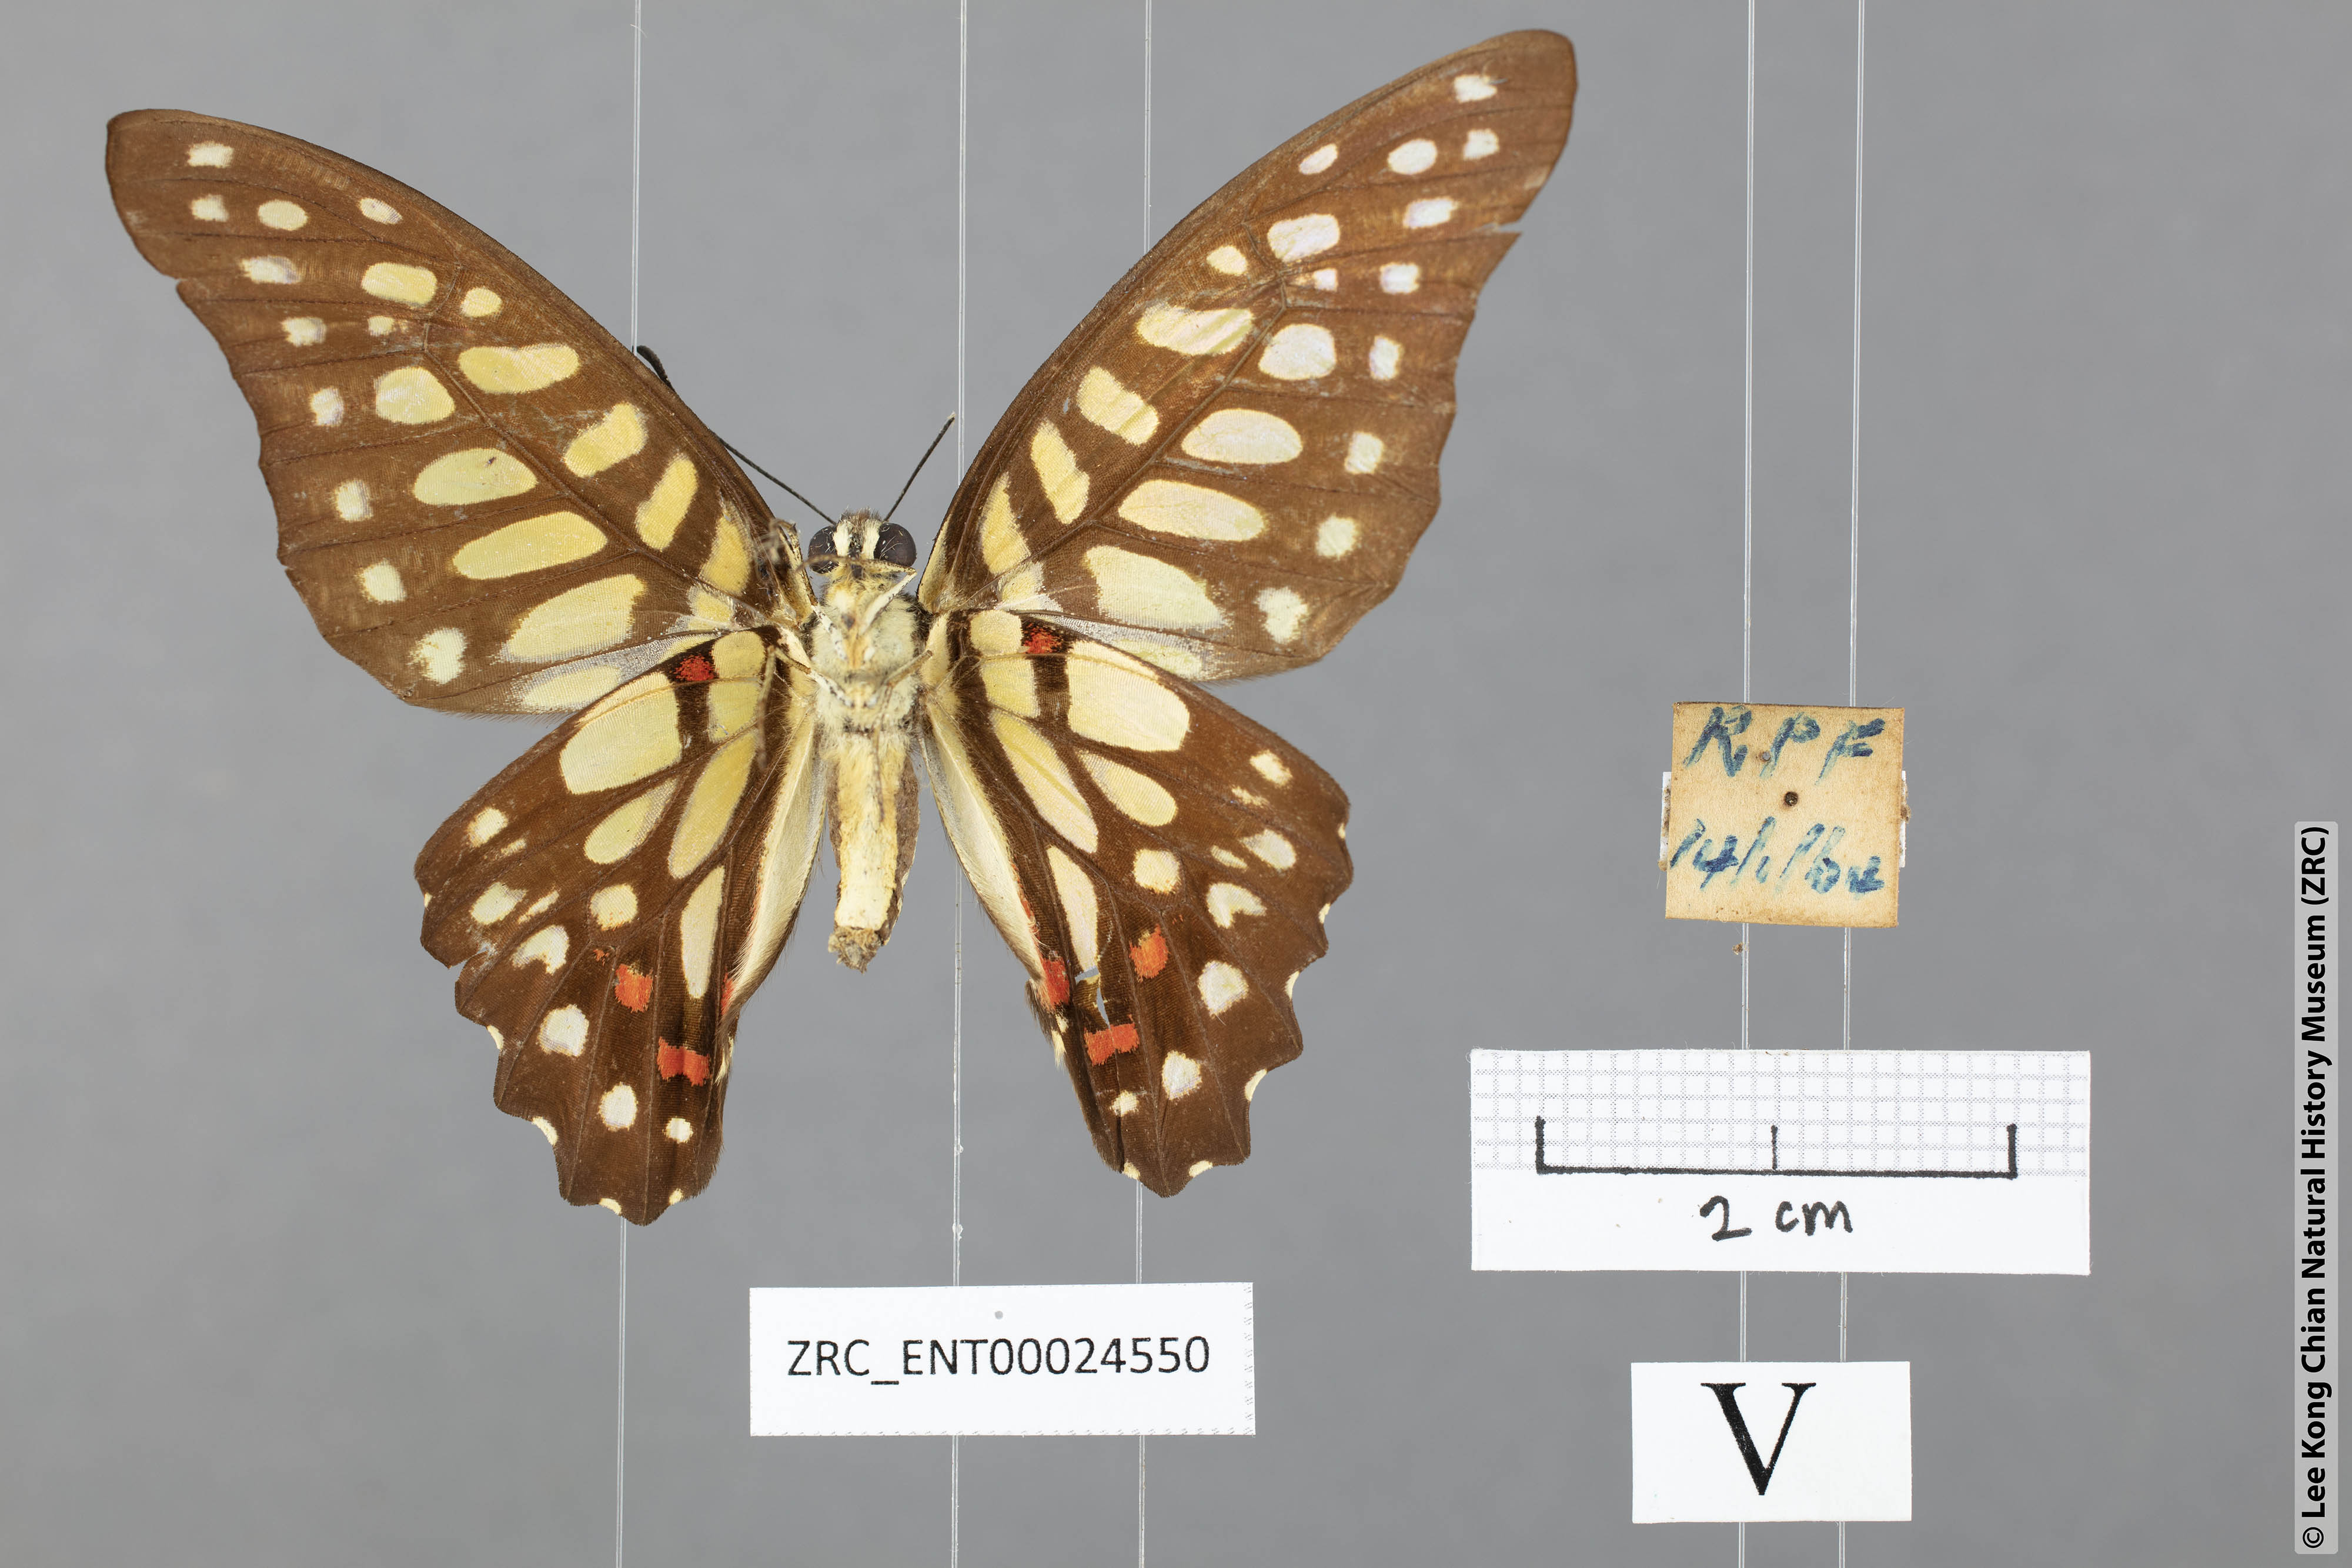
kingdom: Animalia
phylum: Arthropoda
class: Insecta
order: Lepidoptera
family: Papilionidae
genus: Graphium
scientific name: Graphium arycles
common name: Spotted jay
